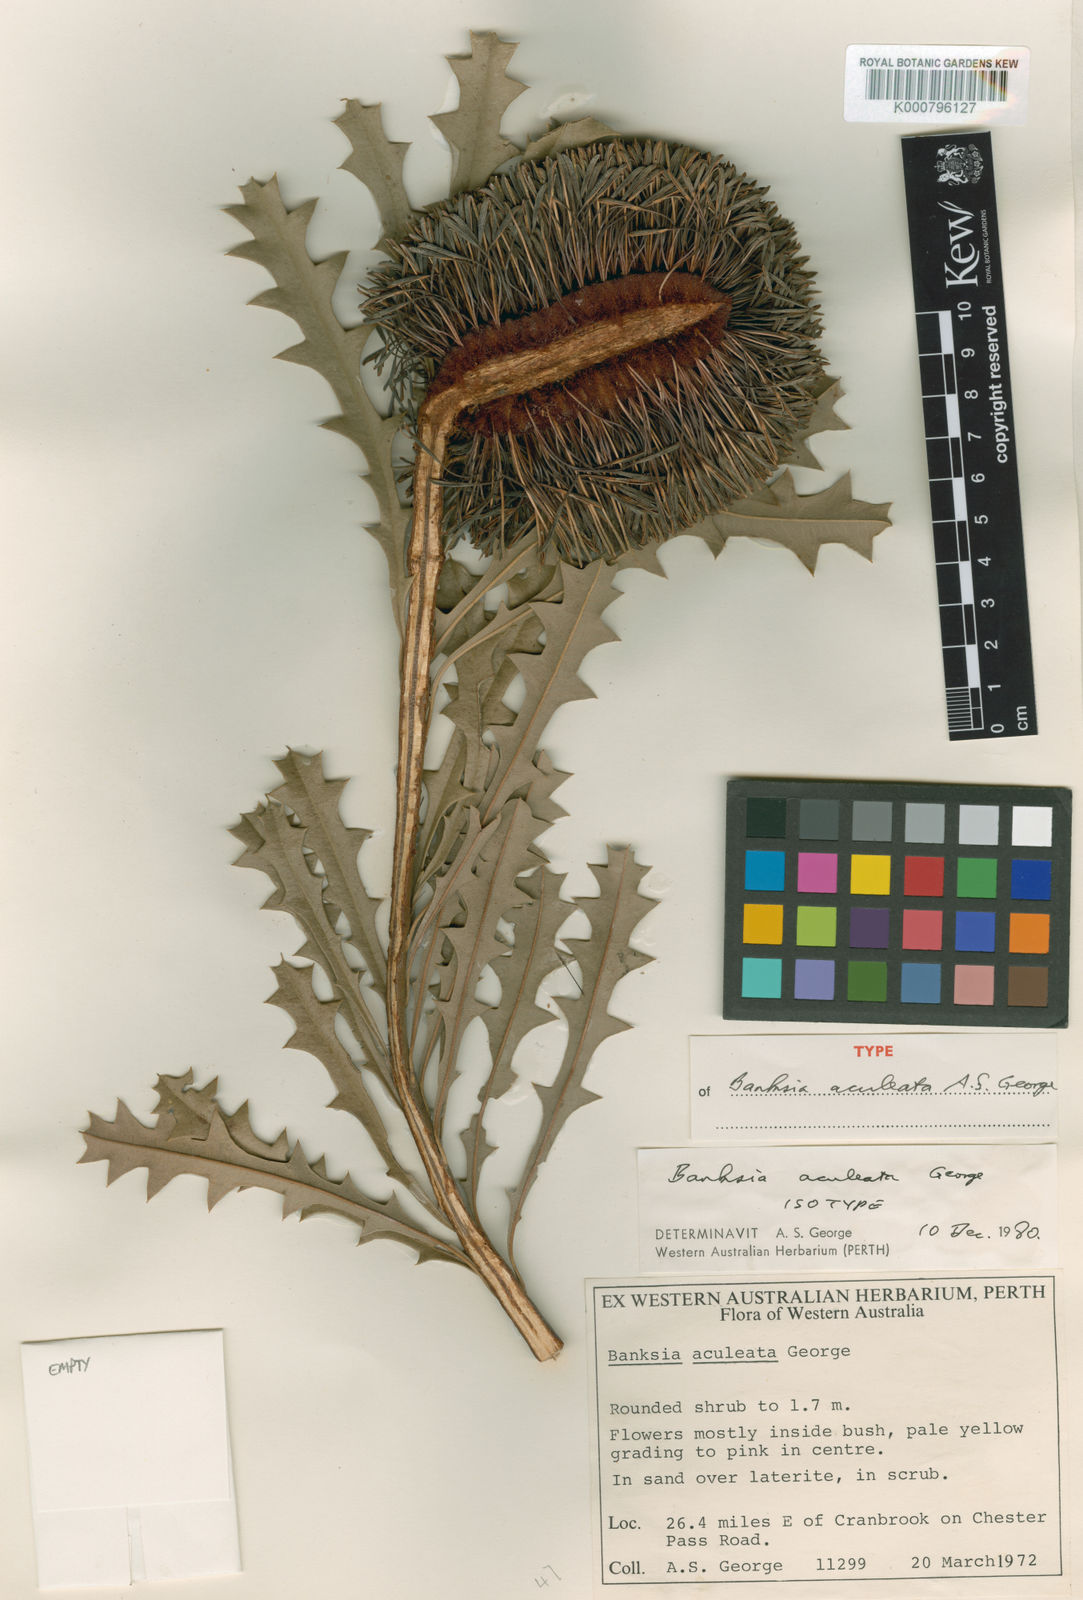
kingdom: Plantae
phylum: Tracheophyta
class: Magnoliopsida
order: Proteales
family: Proteaceae
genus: Banksia
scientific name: Banksia aculeata
